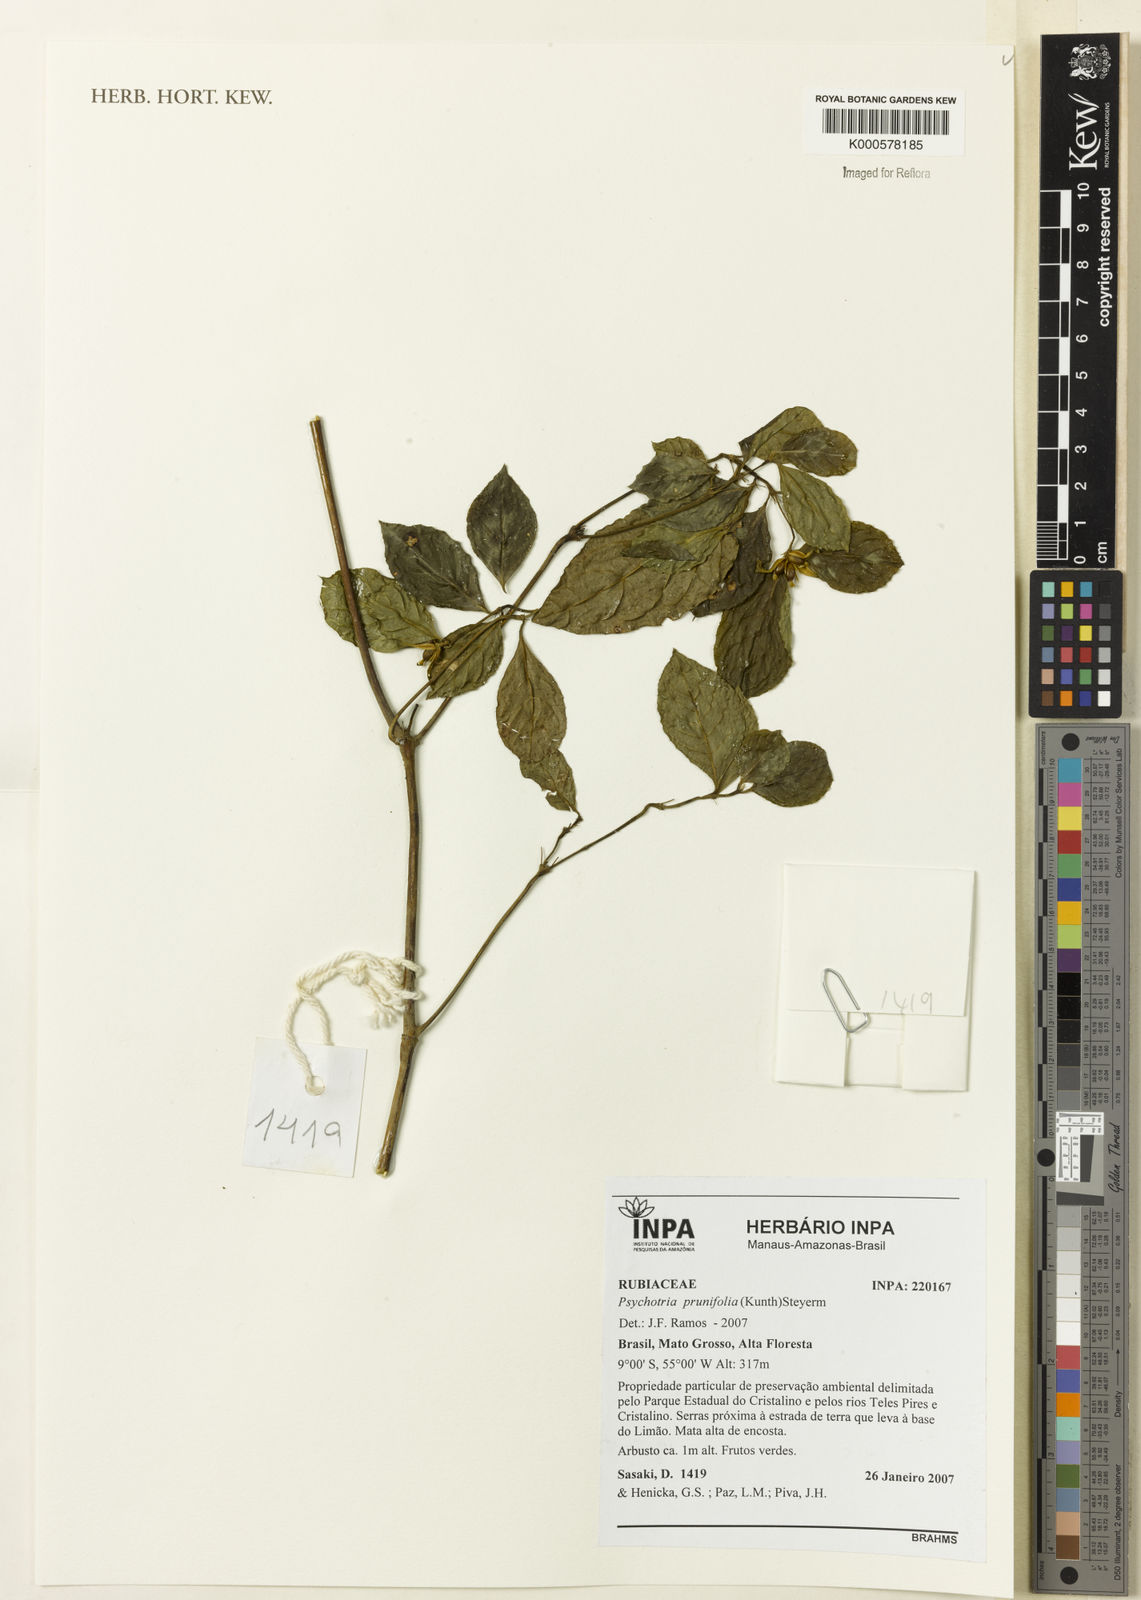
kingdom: Plantae
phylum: Tracheophyta
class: Magnoliopsida
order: Gentianales
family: Rubiaceae
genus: Palicourea
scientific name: Palicourea prunifolia
